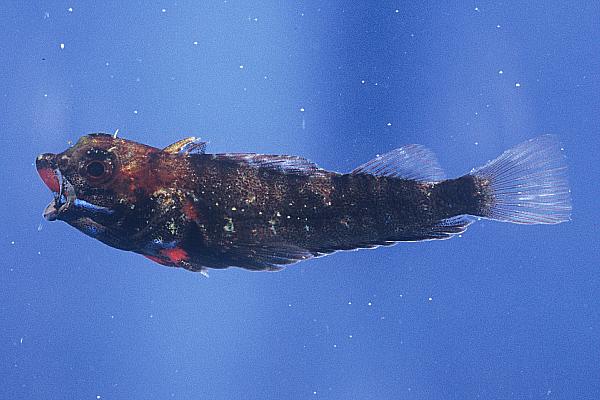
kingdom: Animalia
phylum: Chordata
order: Perciformes
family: Tripterygiidae
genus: Helcogramma
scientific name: Helcogramma rharhabe
